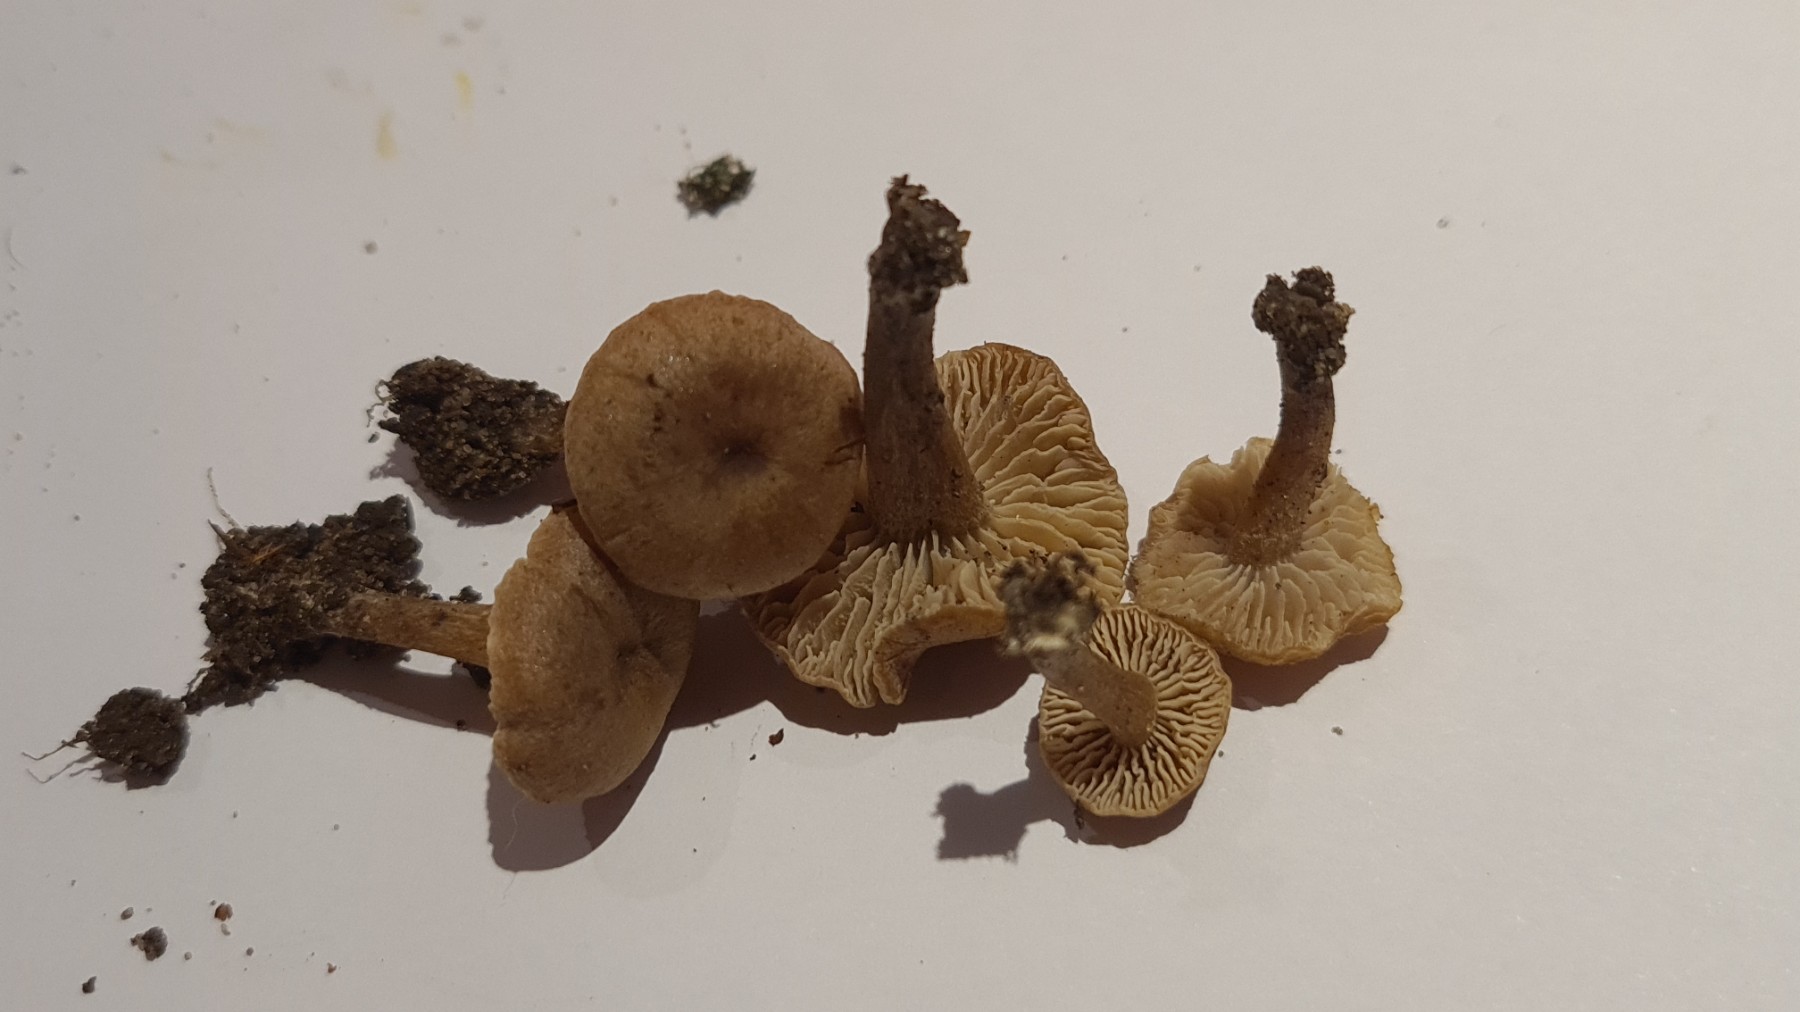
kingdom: Fungi
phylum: Basidiomycota
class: Agaricomycetes
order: Agaricales
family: Callistosporiaceae
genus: Pseudolaccaria
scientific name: Pseudolaccaria pachyphylla
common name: hvælvet tykblad
